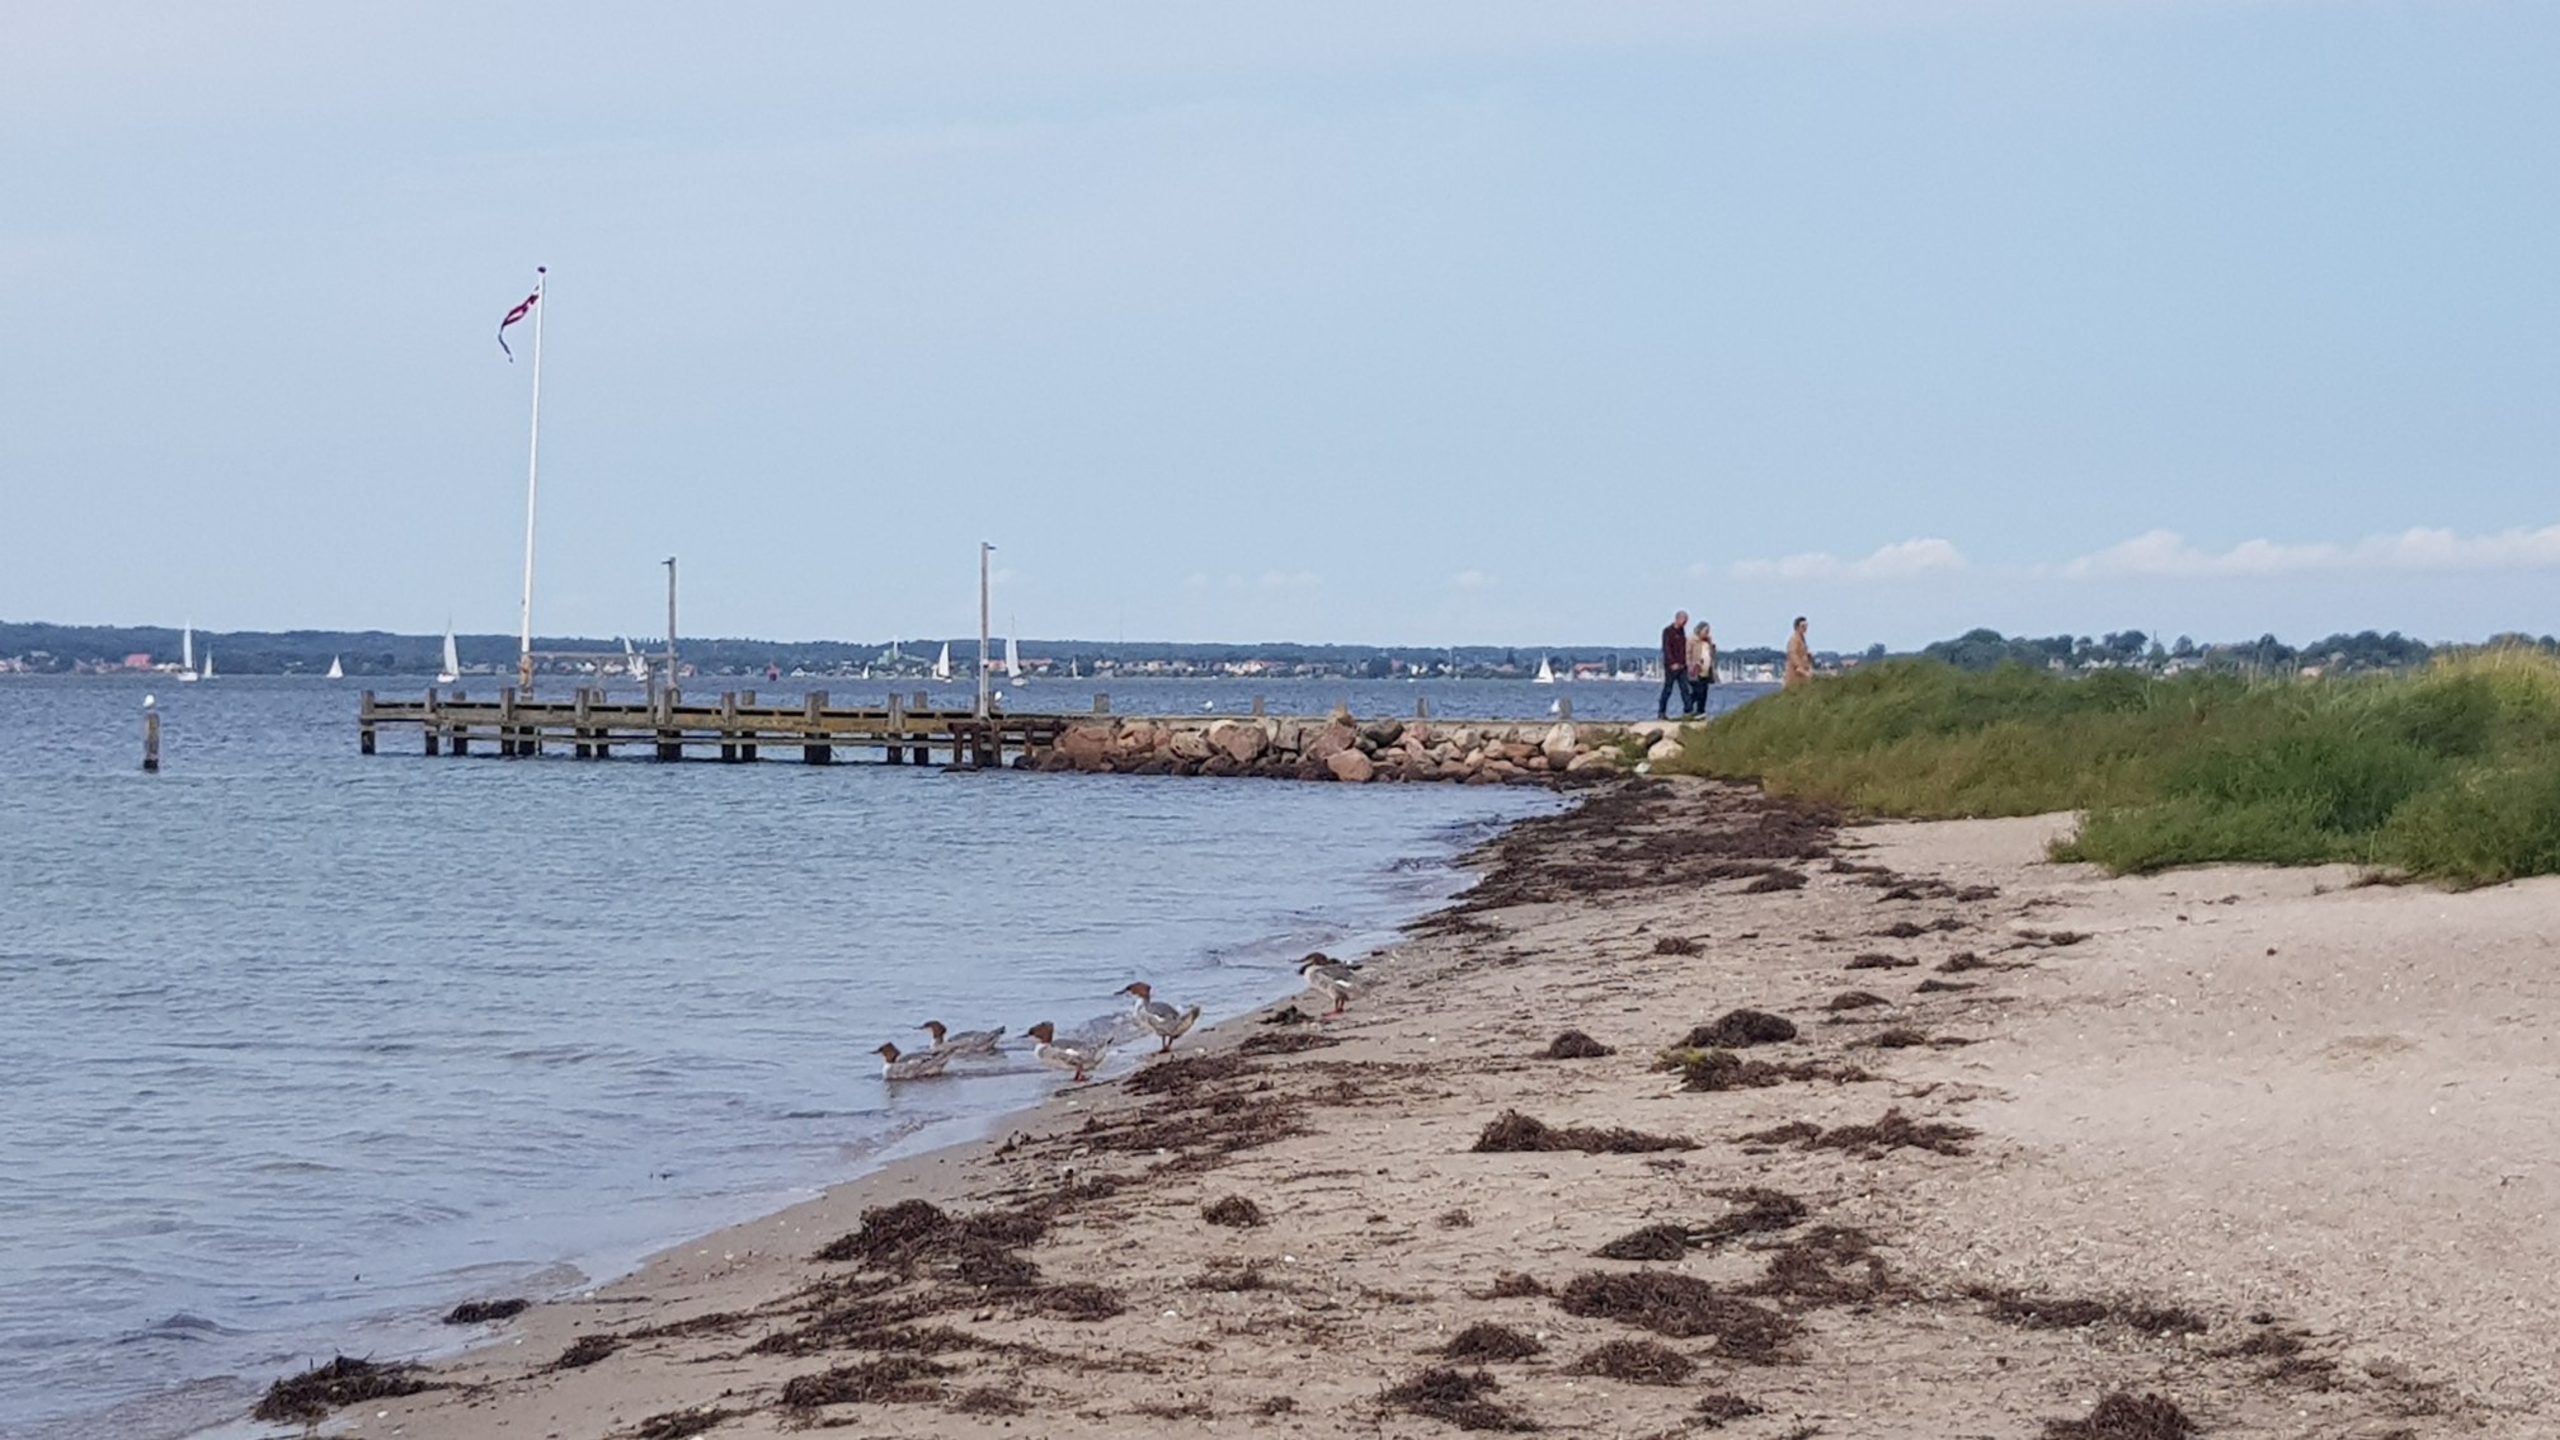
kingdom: Animalia
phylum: Chordata
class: Aves
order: Anseriformes
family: Anatidae
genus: Mergus
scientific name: Mergus merganser
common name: Stor skallesluger
